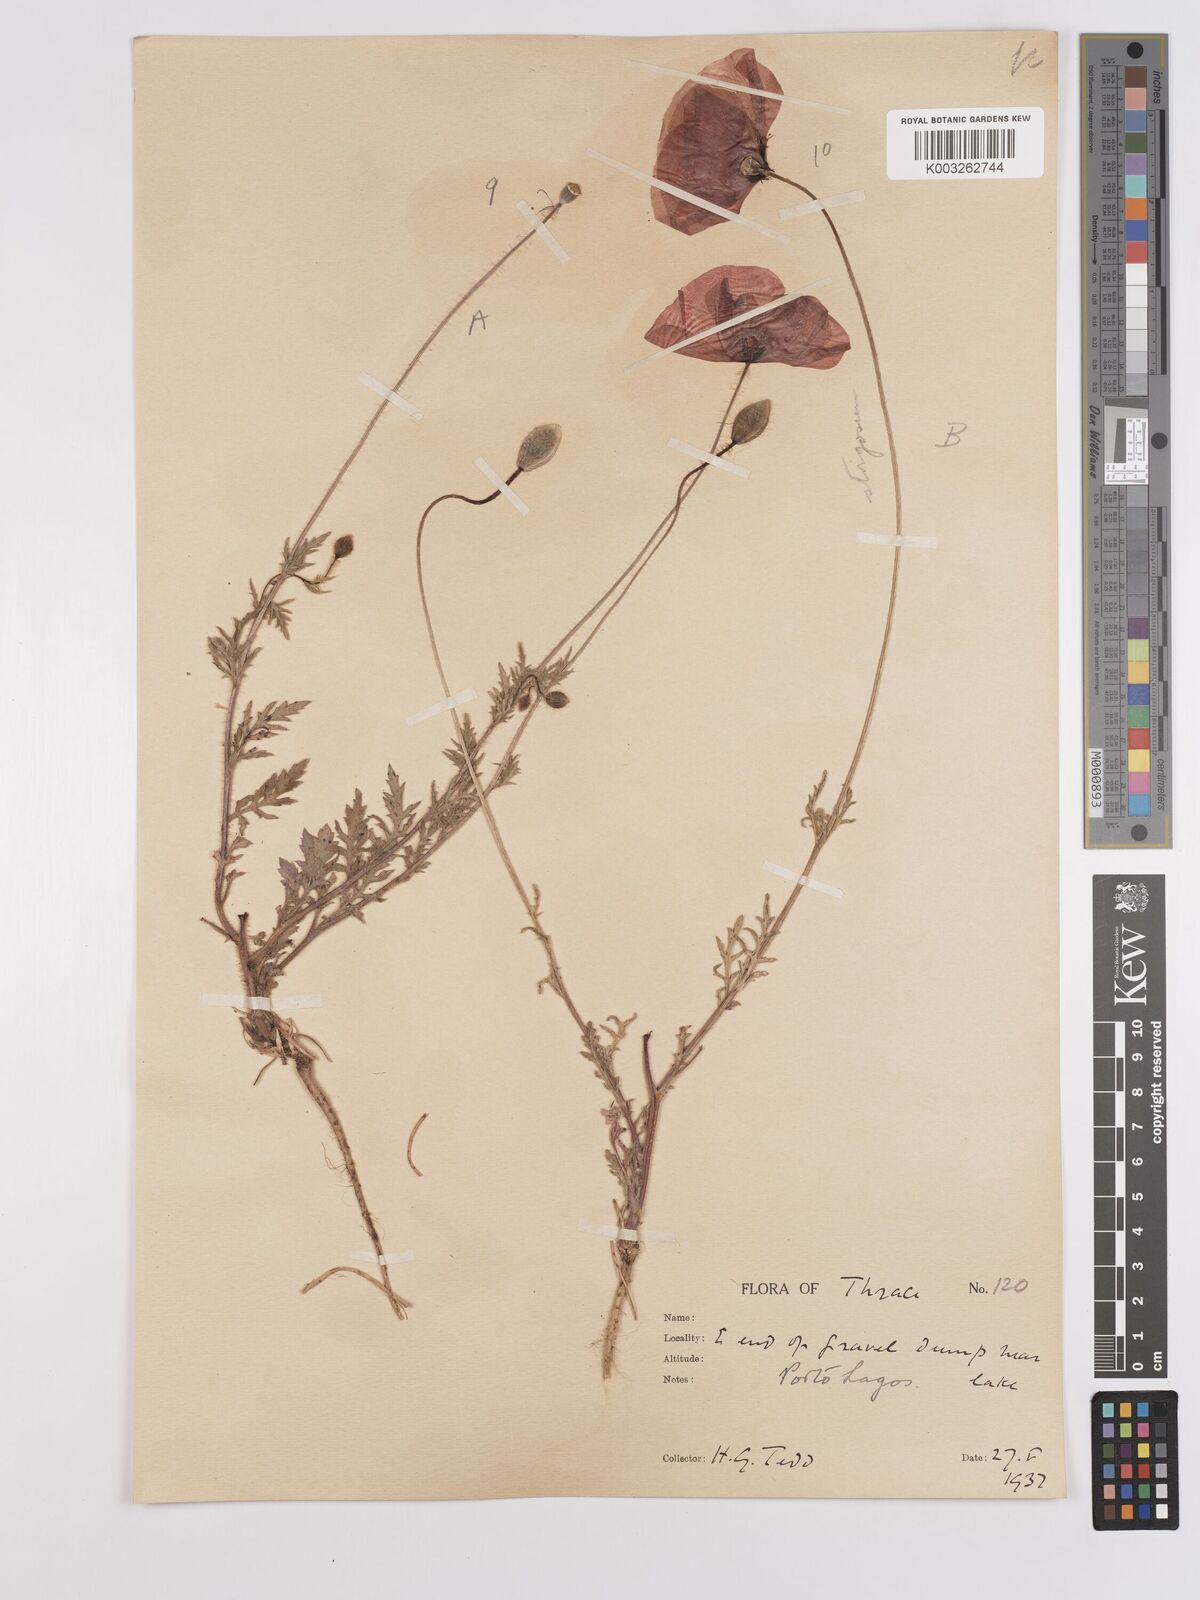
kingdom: Plantae
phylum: Tracheophyta
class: Magnoliopsida
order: Ranunculales
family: Papaveraceae
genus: Papaver
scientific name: Papaver
